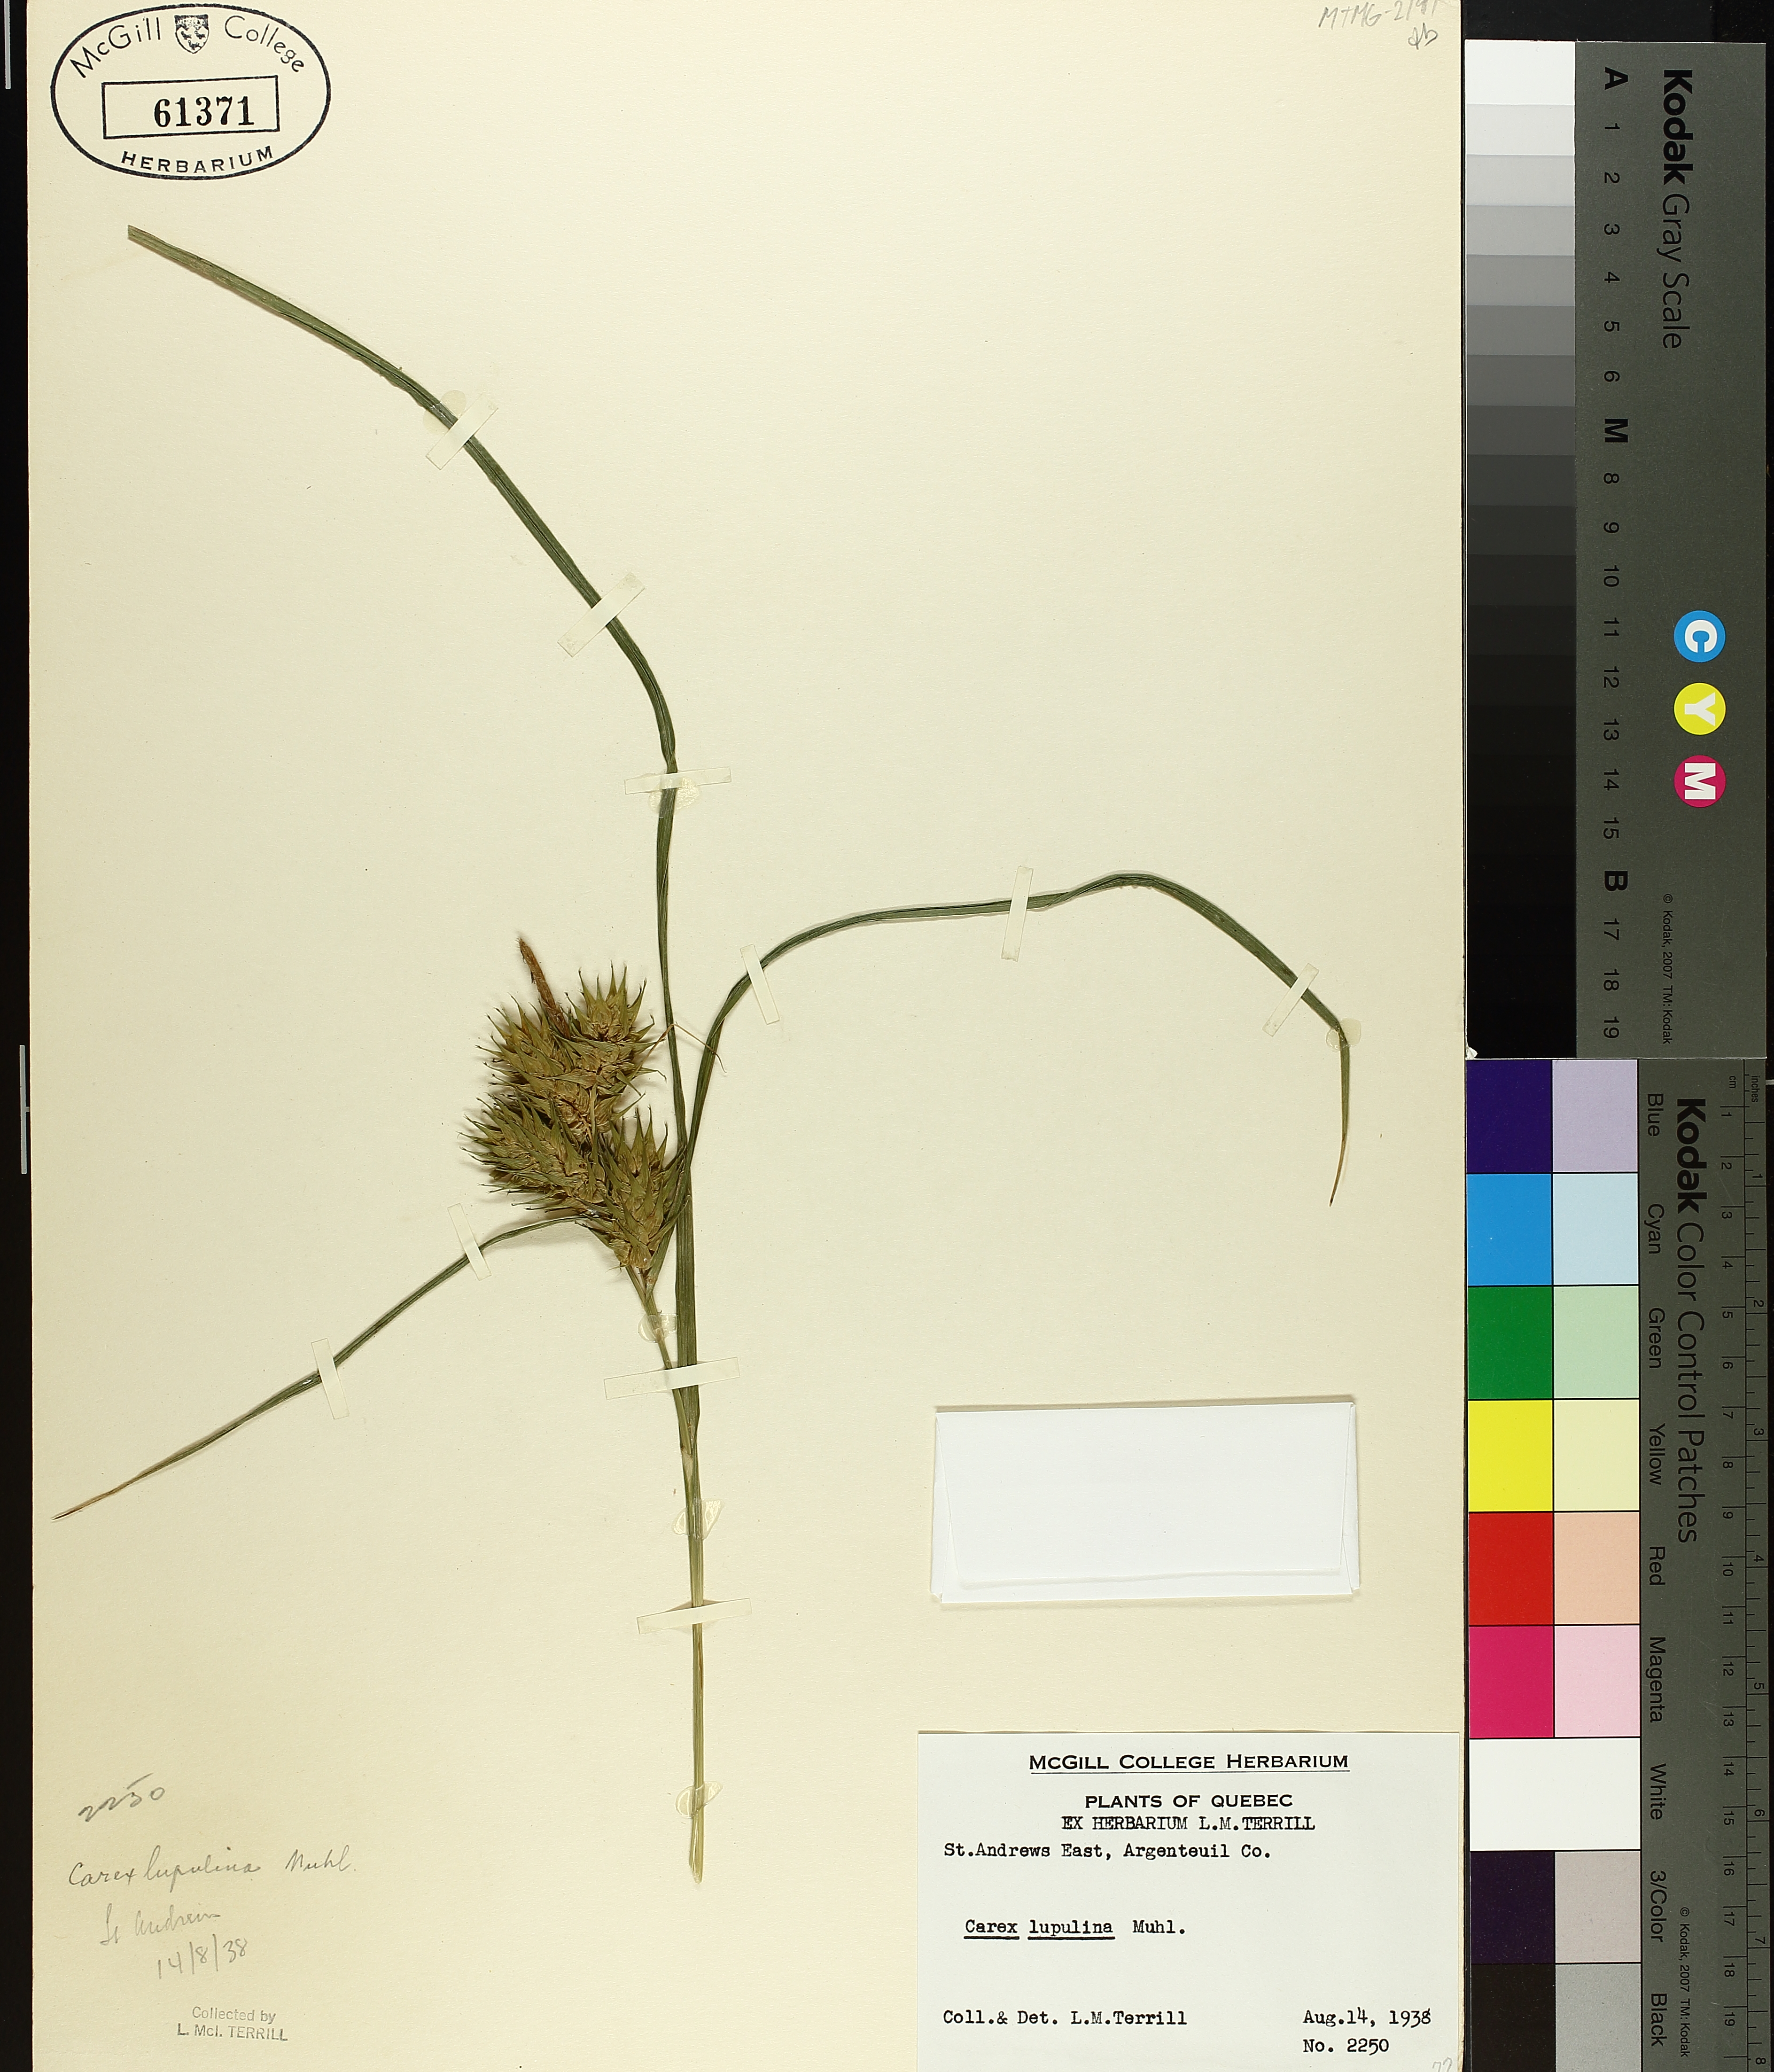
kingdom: Plantae
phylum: Tracheophyta
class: Liliopsida
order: Poales
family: Cyperaceae
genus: Carex
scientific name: Carex lupulina
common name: Hop sedge
